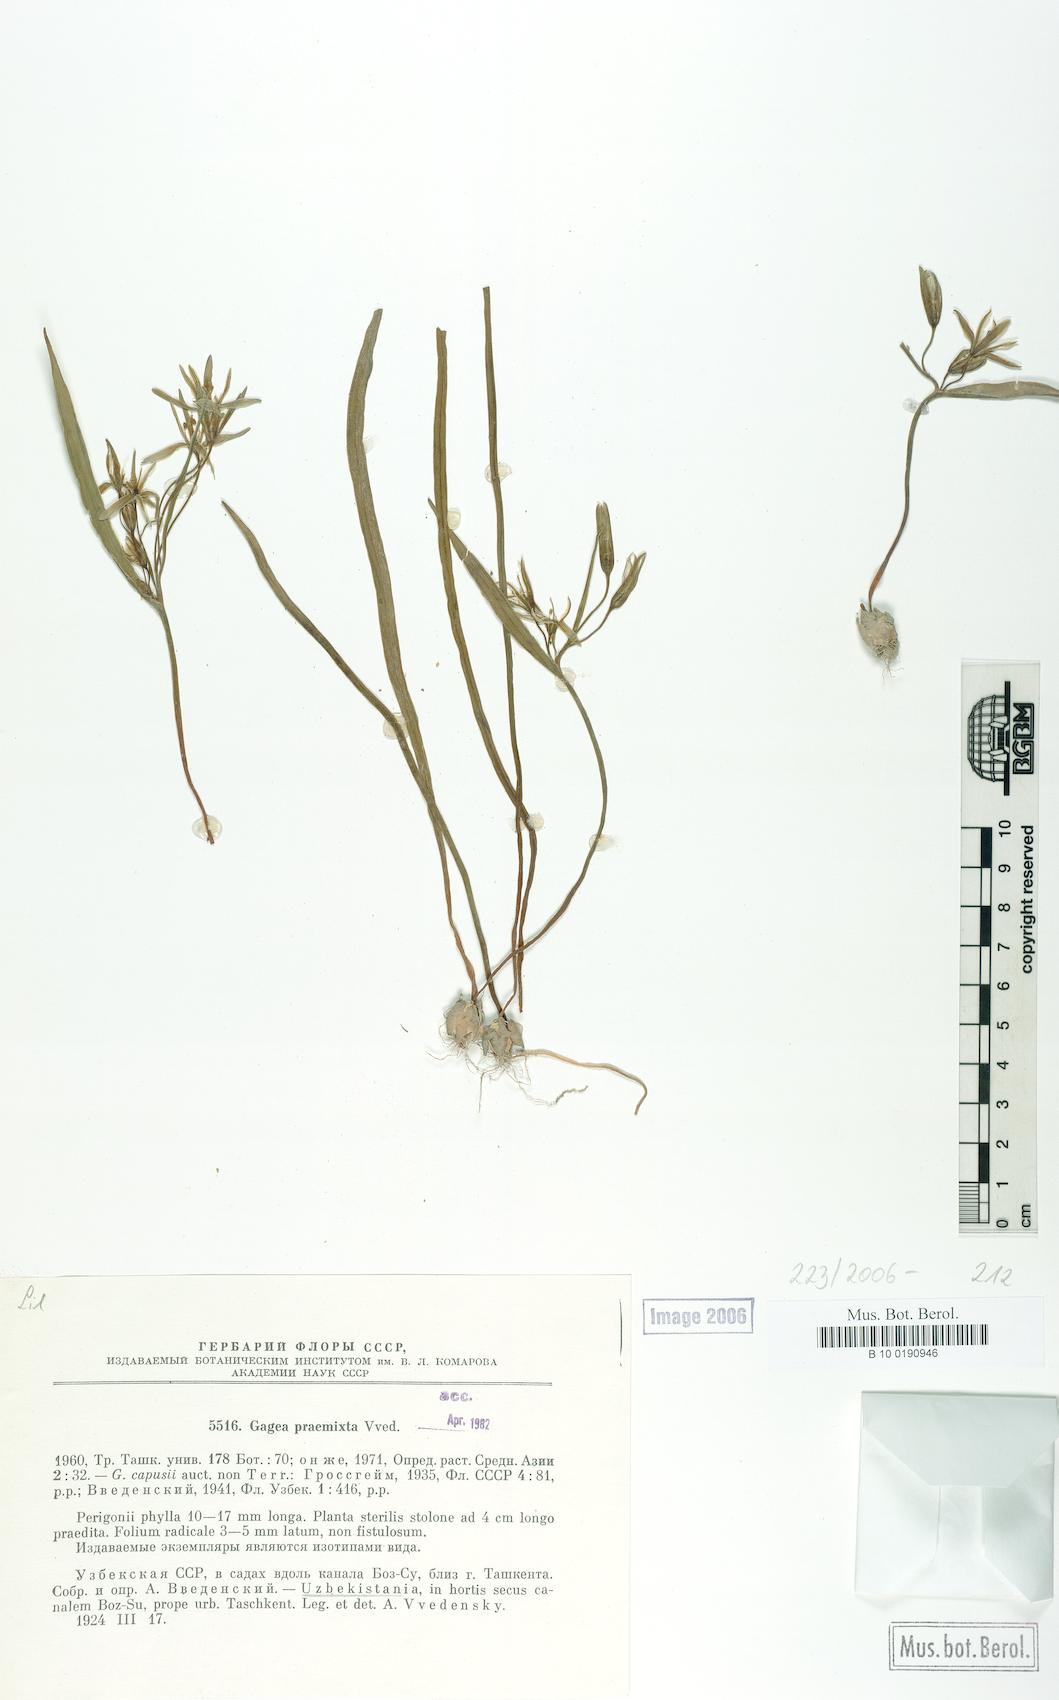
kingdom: Plantae
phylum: Tracheophyta
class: Liliopsida
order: Liliales
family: Liliaceae
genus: Gagea
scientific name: Gagea praemixta
